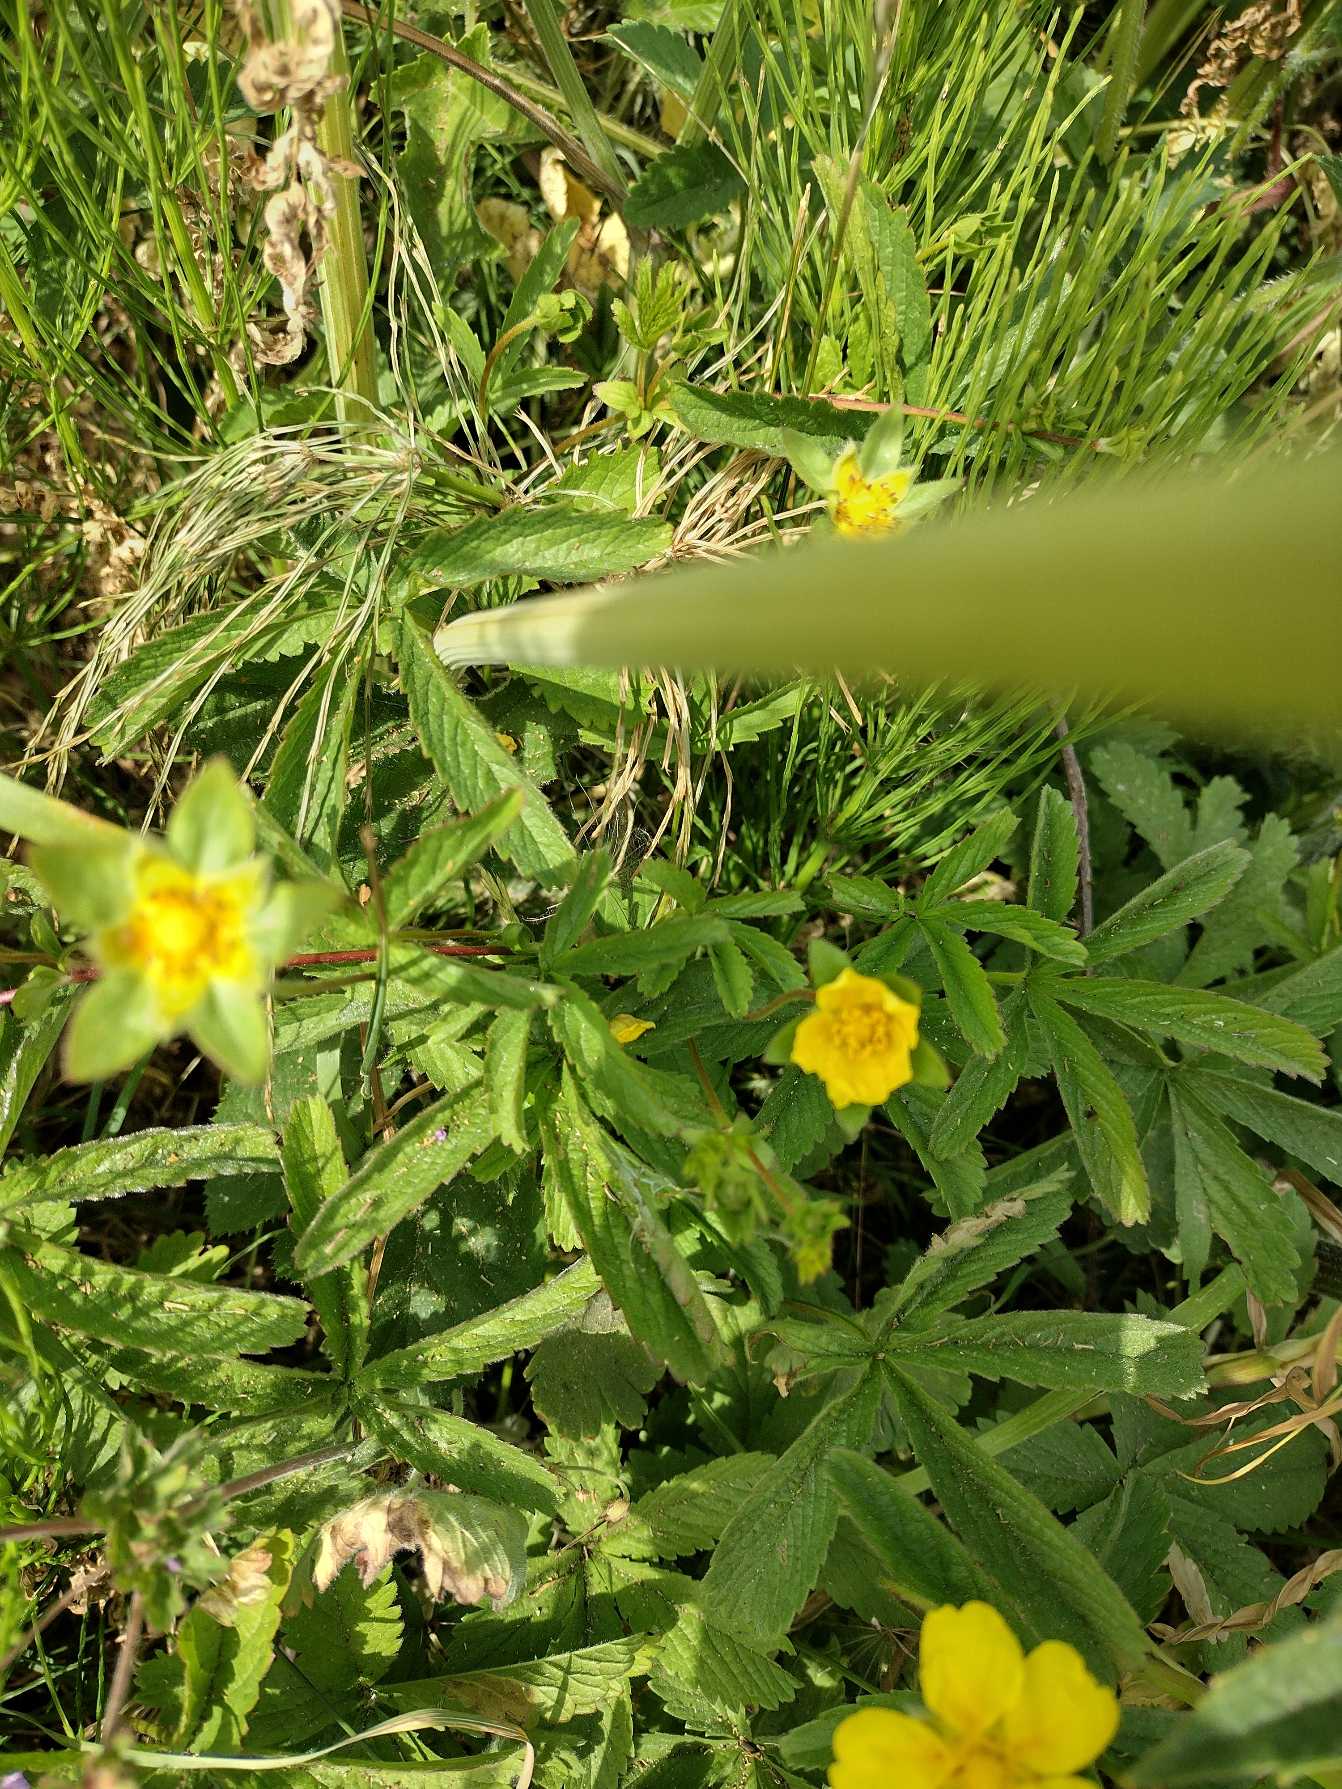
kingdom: Plantae
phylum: Tracheophyta
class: Magnoliopsida
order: Rosales
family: Rosaceae
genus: Potentilla
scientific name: Potentilla reptans
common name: Krybende potentil
